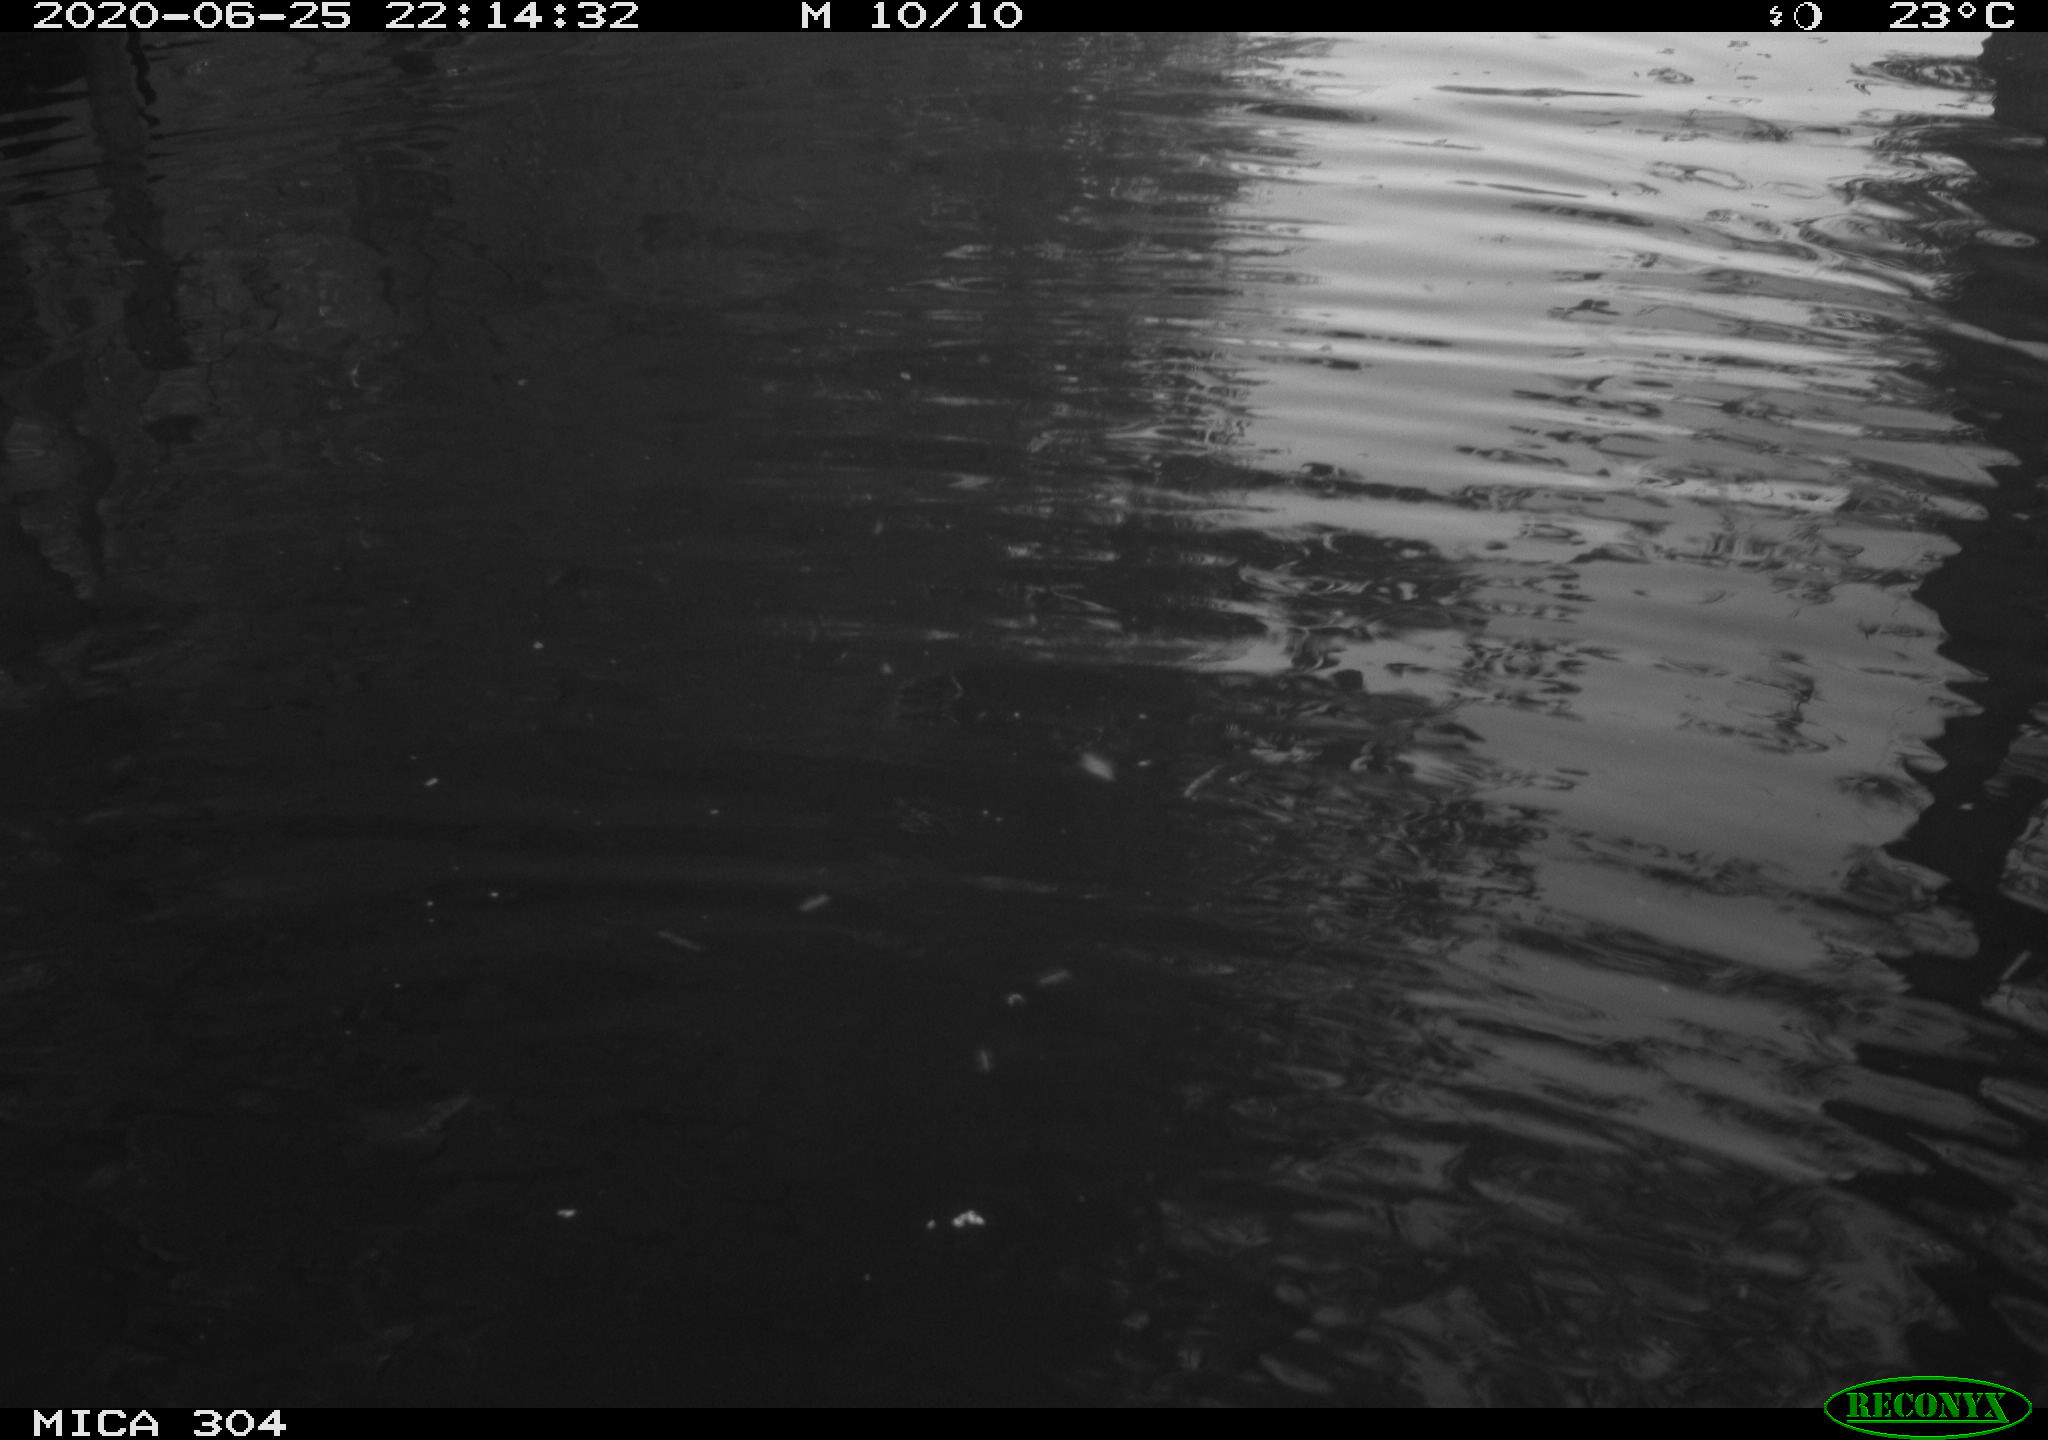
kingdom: Animalia
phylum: Chordata
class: Aves
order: Anseriformes
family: Anatidae
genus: Anas
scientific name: Anas platyrhynchos
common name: Mallard
